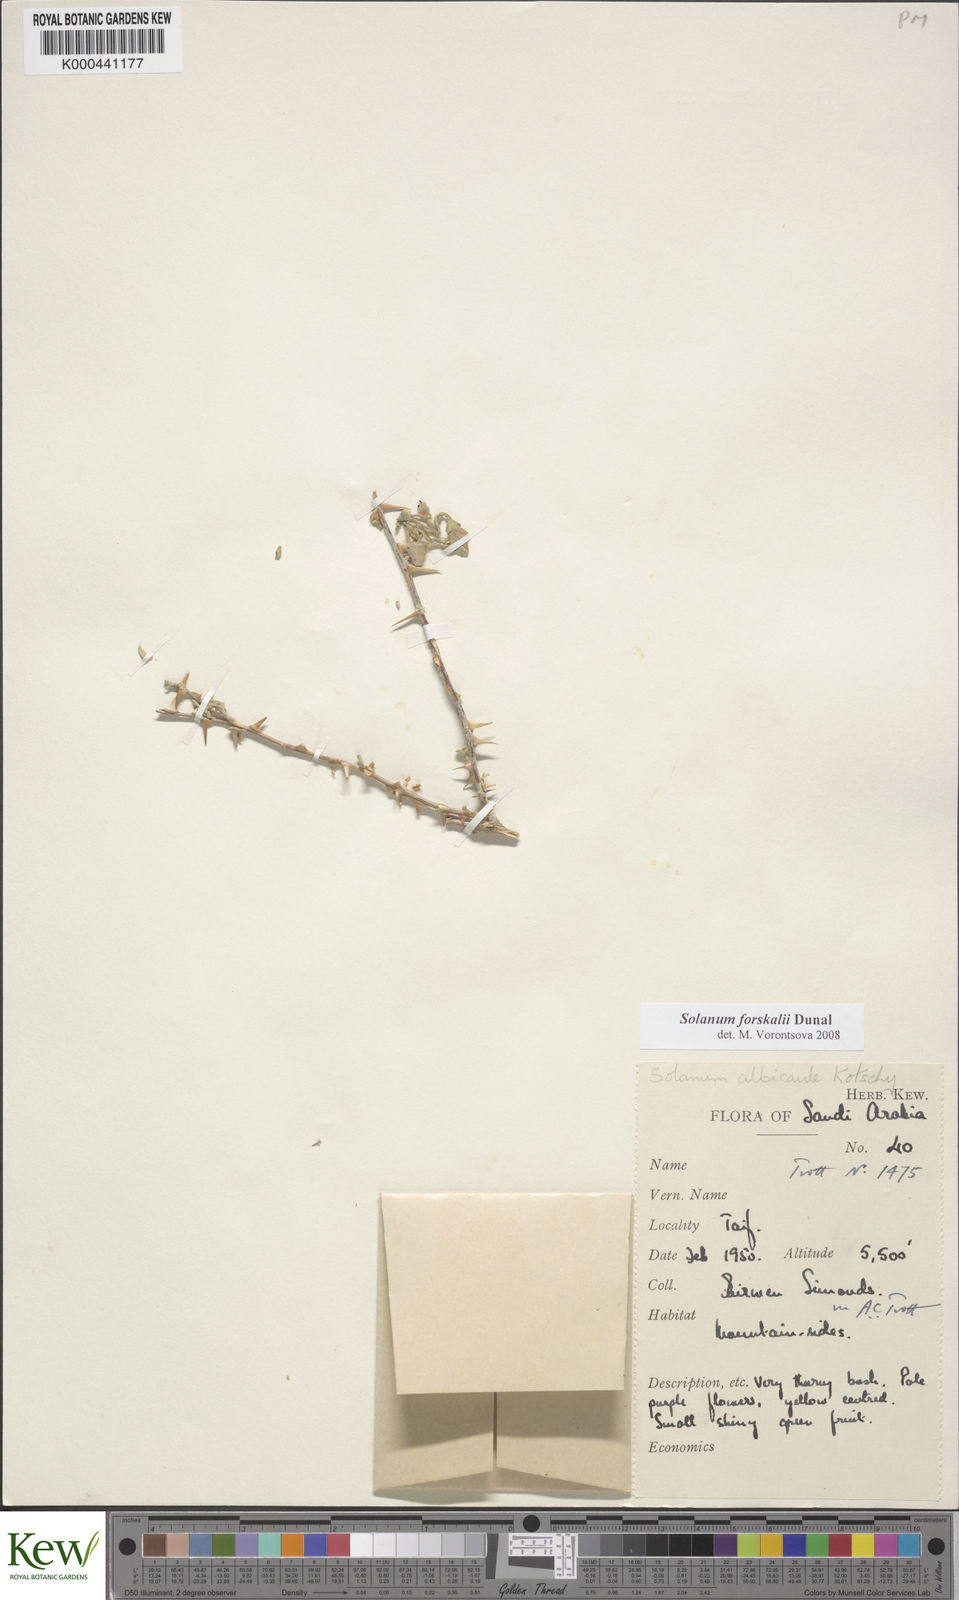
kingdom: Plantae
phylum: Tracheophyta
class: Magnoliopsida
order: Solanales
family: Solanaceae
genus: Solanum
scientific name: Solanum
